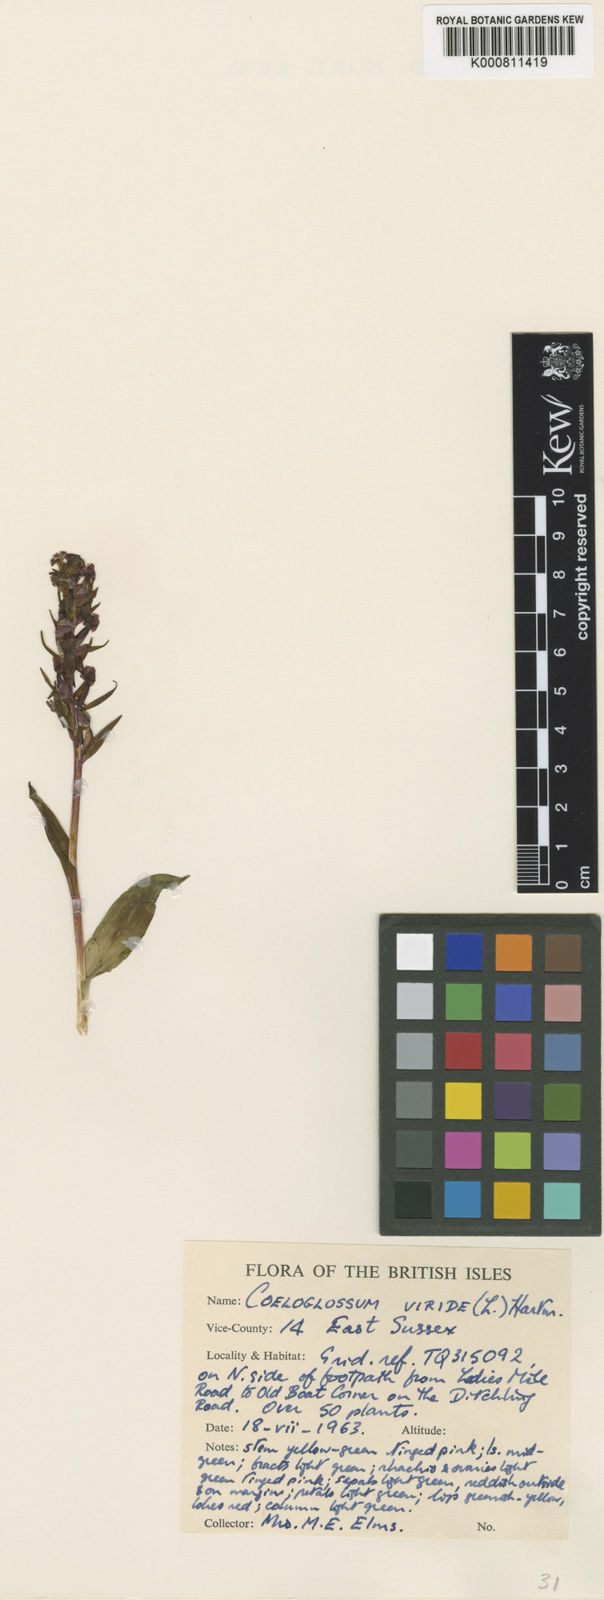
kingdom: Plantae
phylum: Tracheophyta
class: Liliopsida
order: Asparagales
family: Orchidaceae
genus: Dactylorhiza
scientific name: Dactylorhiza viridis
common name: Longbract frog orchid
